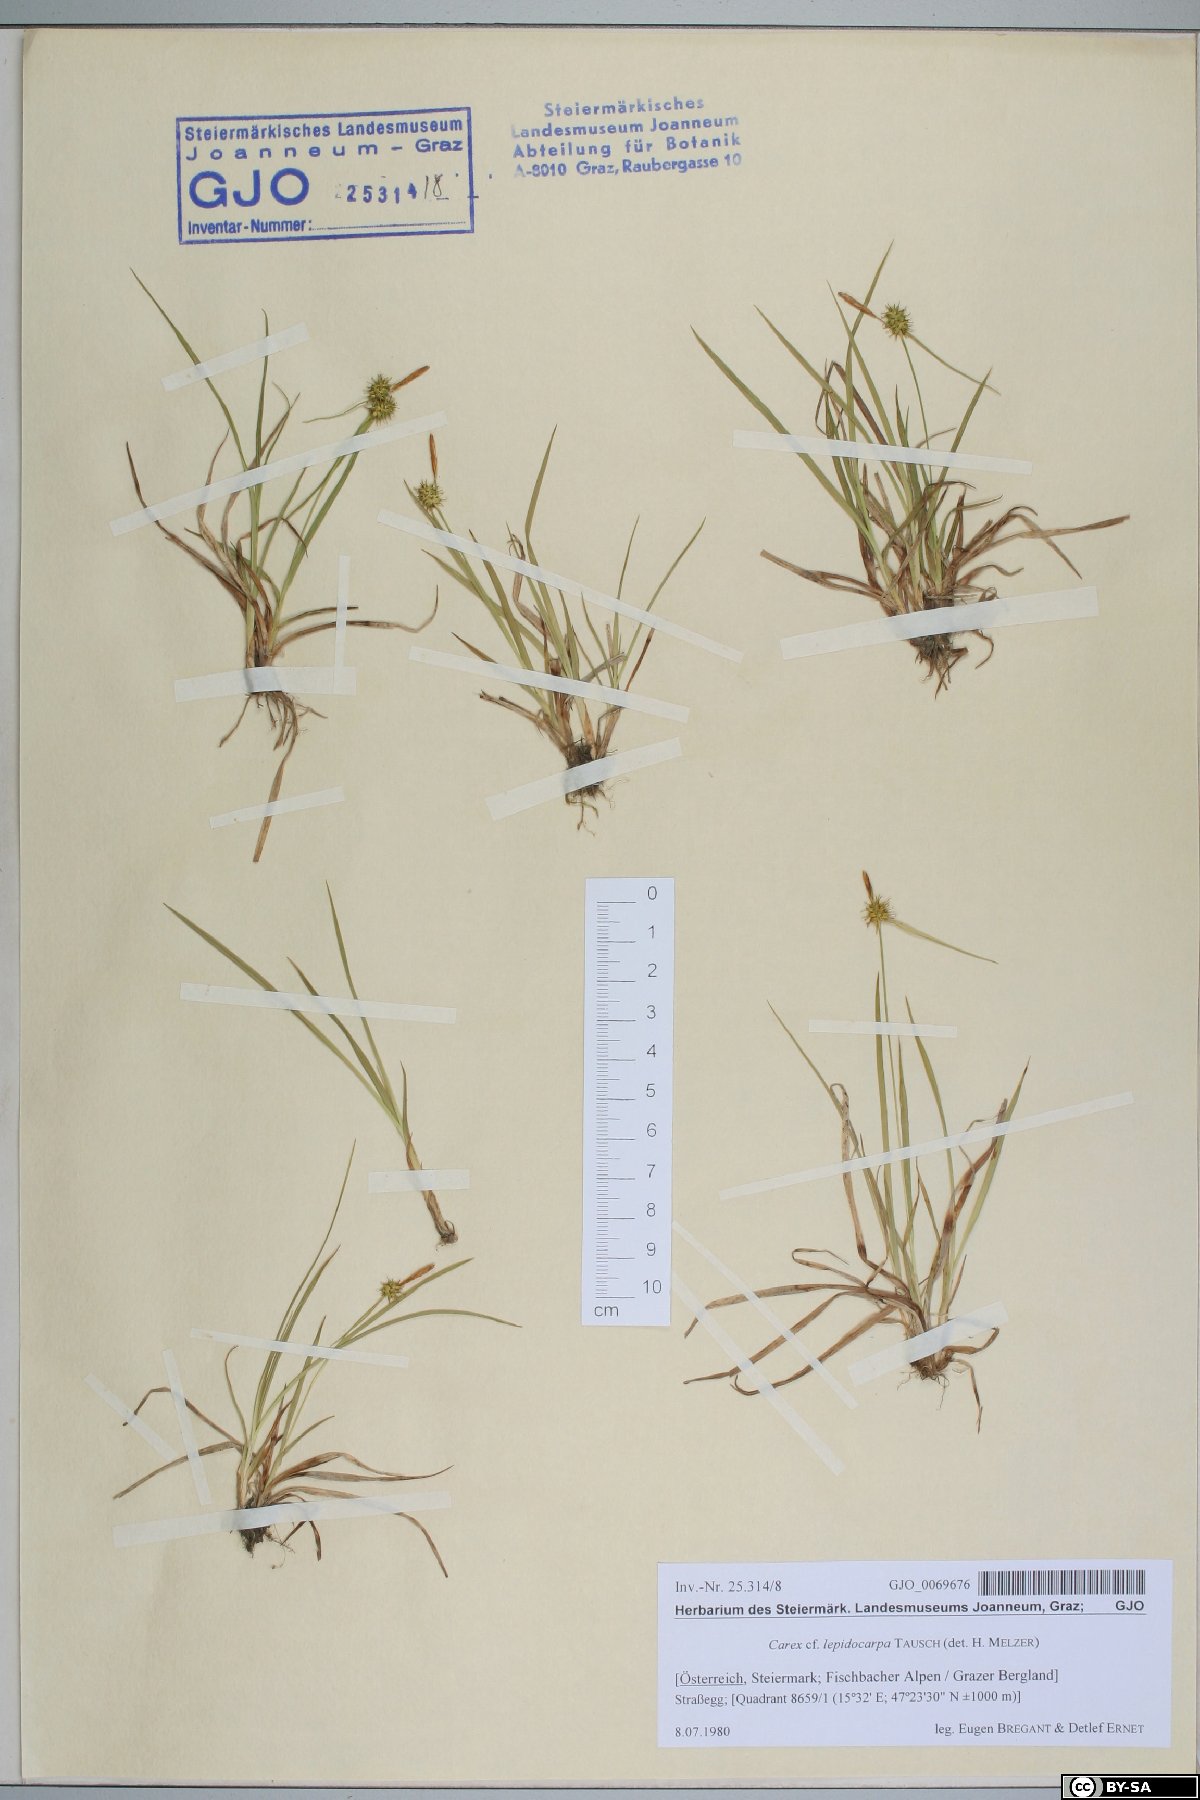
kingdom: Plantae
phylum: Tracheophyta
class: Liliopsida
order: Poales
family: Cyperaceae
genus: Carex
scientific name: Carex lepidocarpa
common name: Long-stalked yellow-sedge
